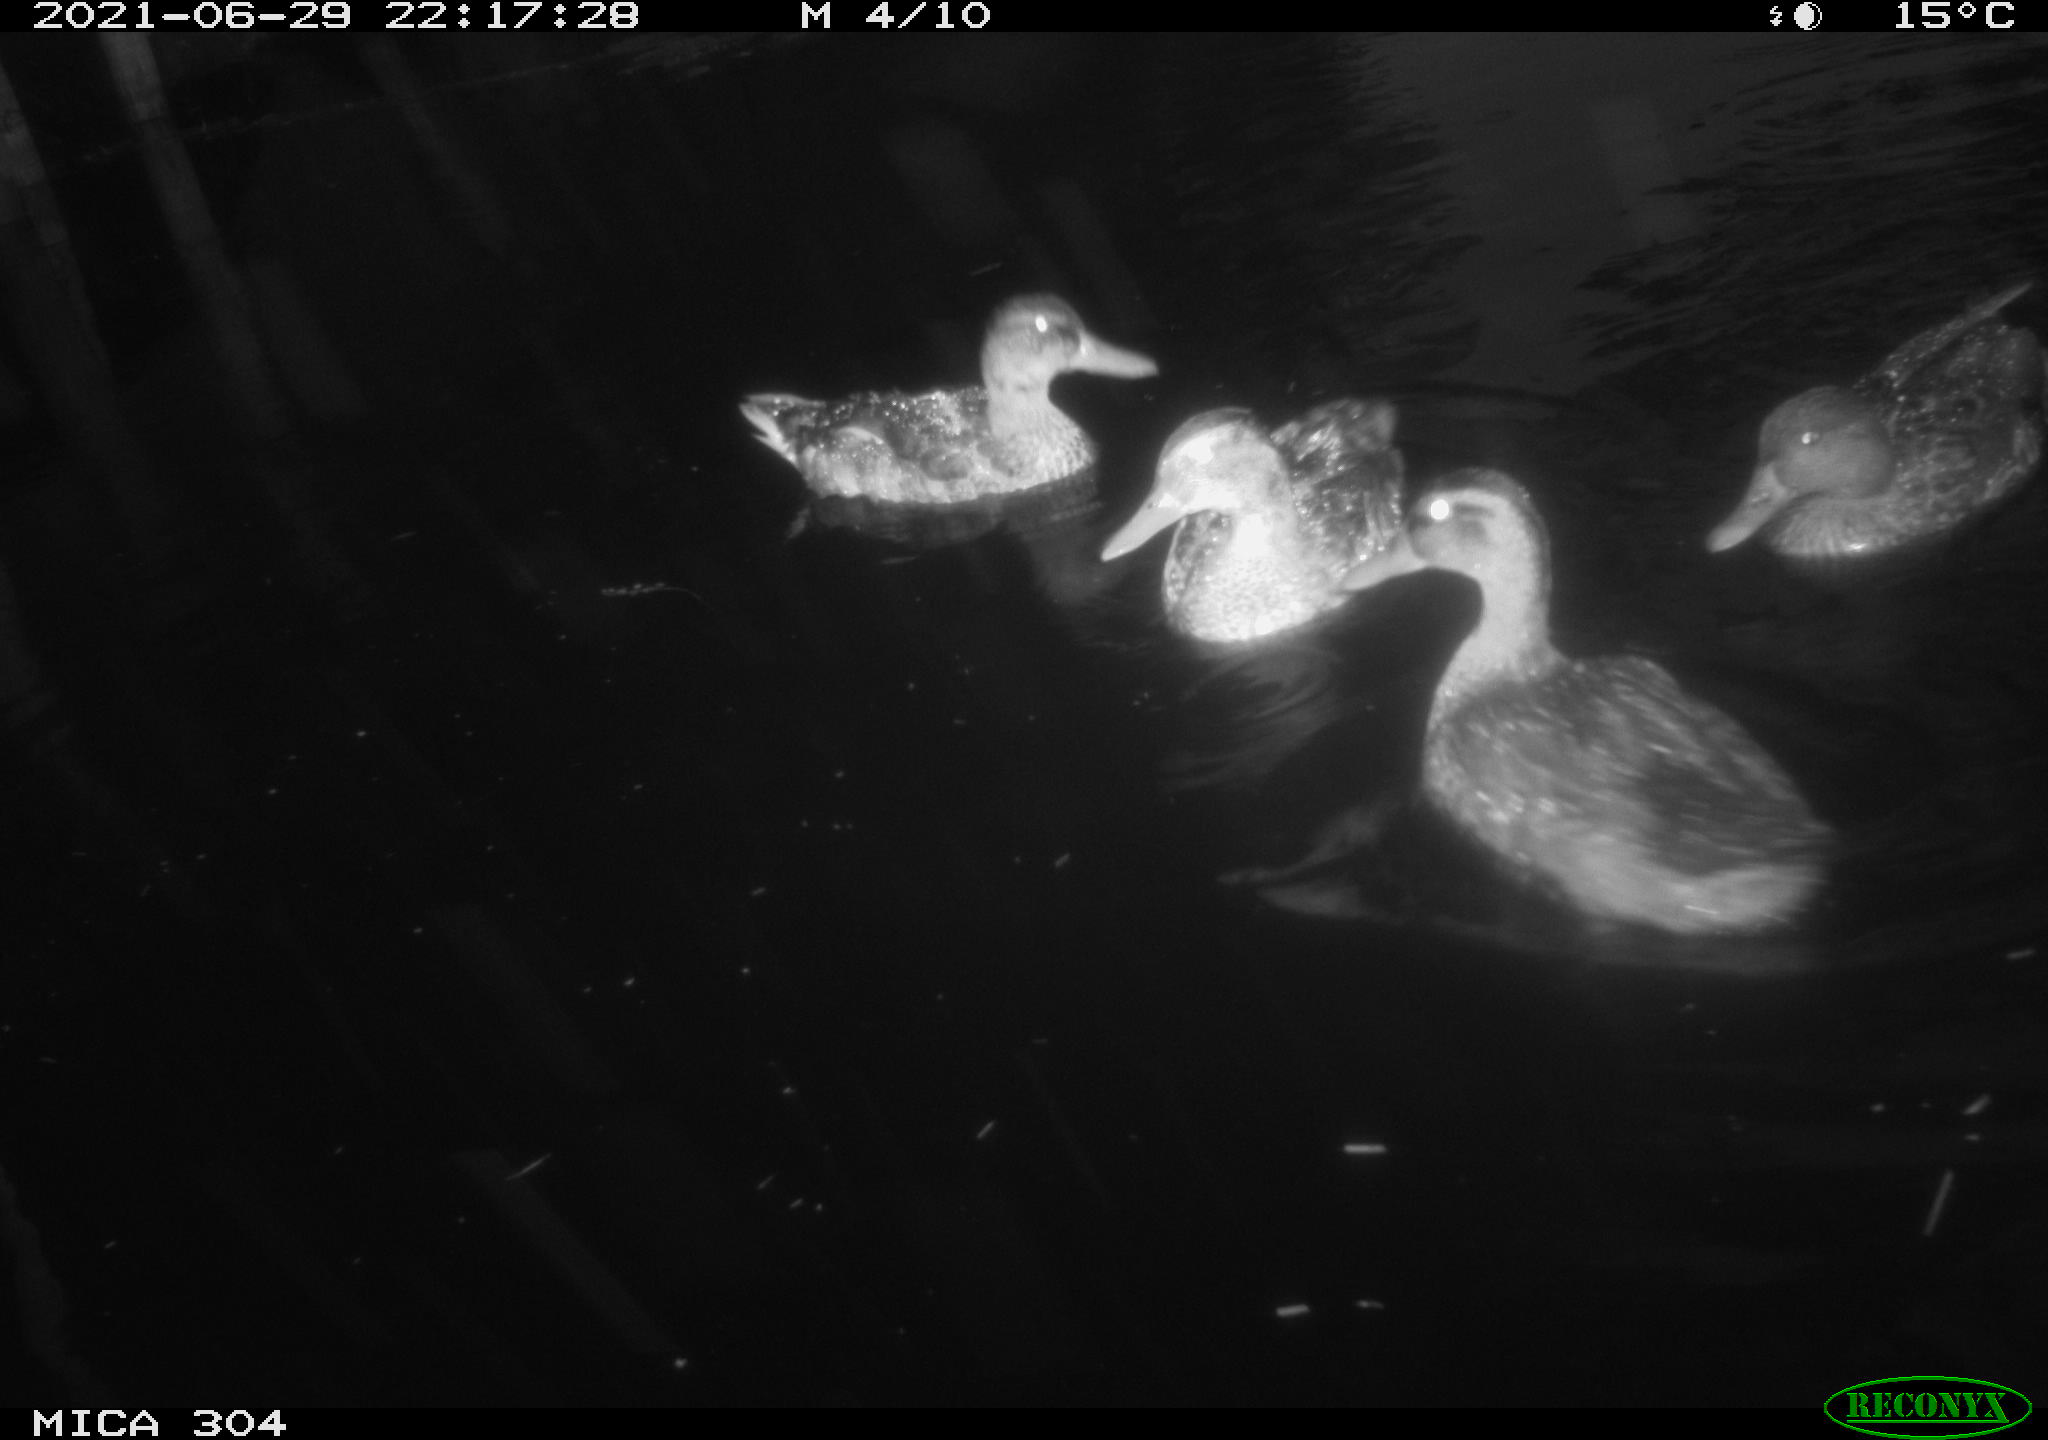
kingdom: Animalia
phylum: Chordata
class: Aves
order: Anseriformes
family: Anatidae
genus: Mareca
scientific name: Mareca strepera
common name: Gadwall
